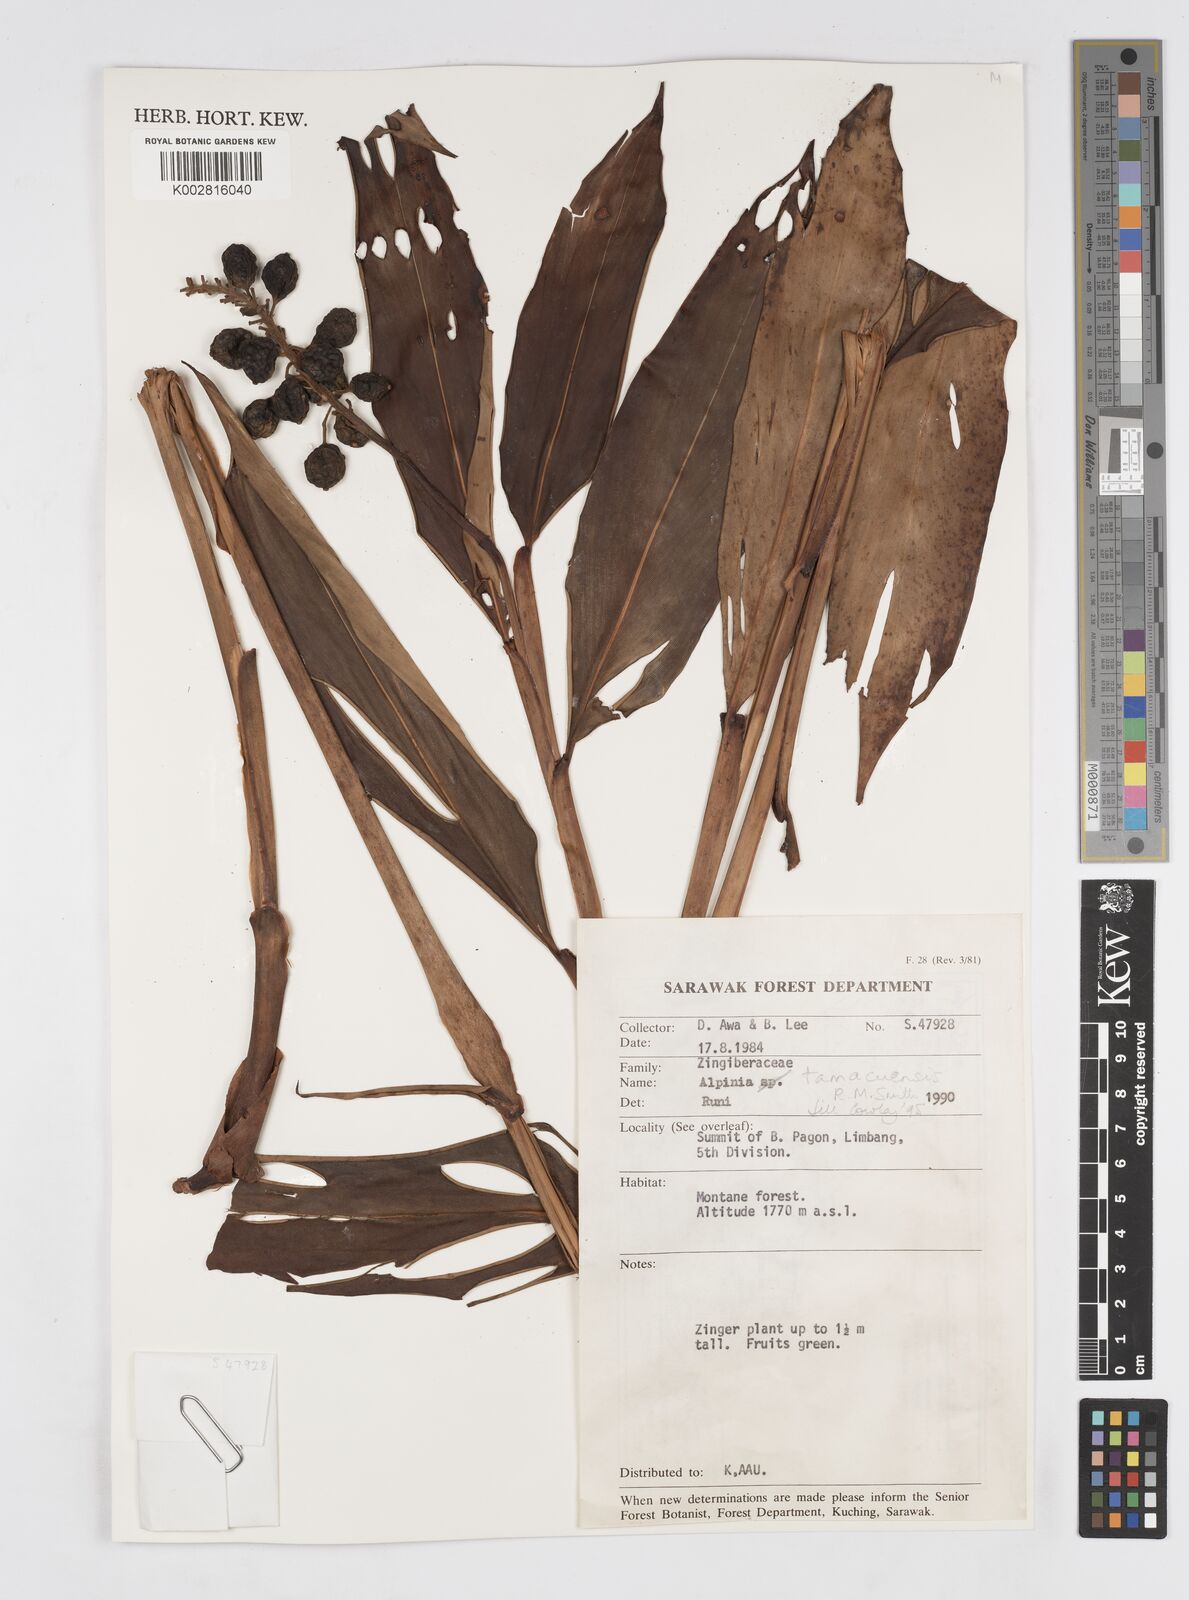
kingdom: Plantae
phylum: Tracheophyta
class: Liliopsida
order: Zingiberales
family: Zingiberaceae
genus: Alpinia
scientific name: Alpinia tamacuensis
